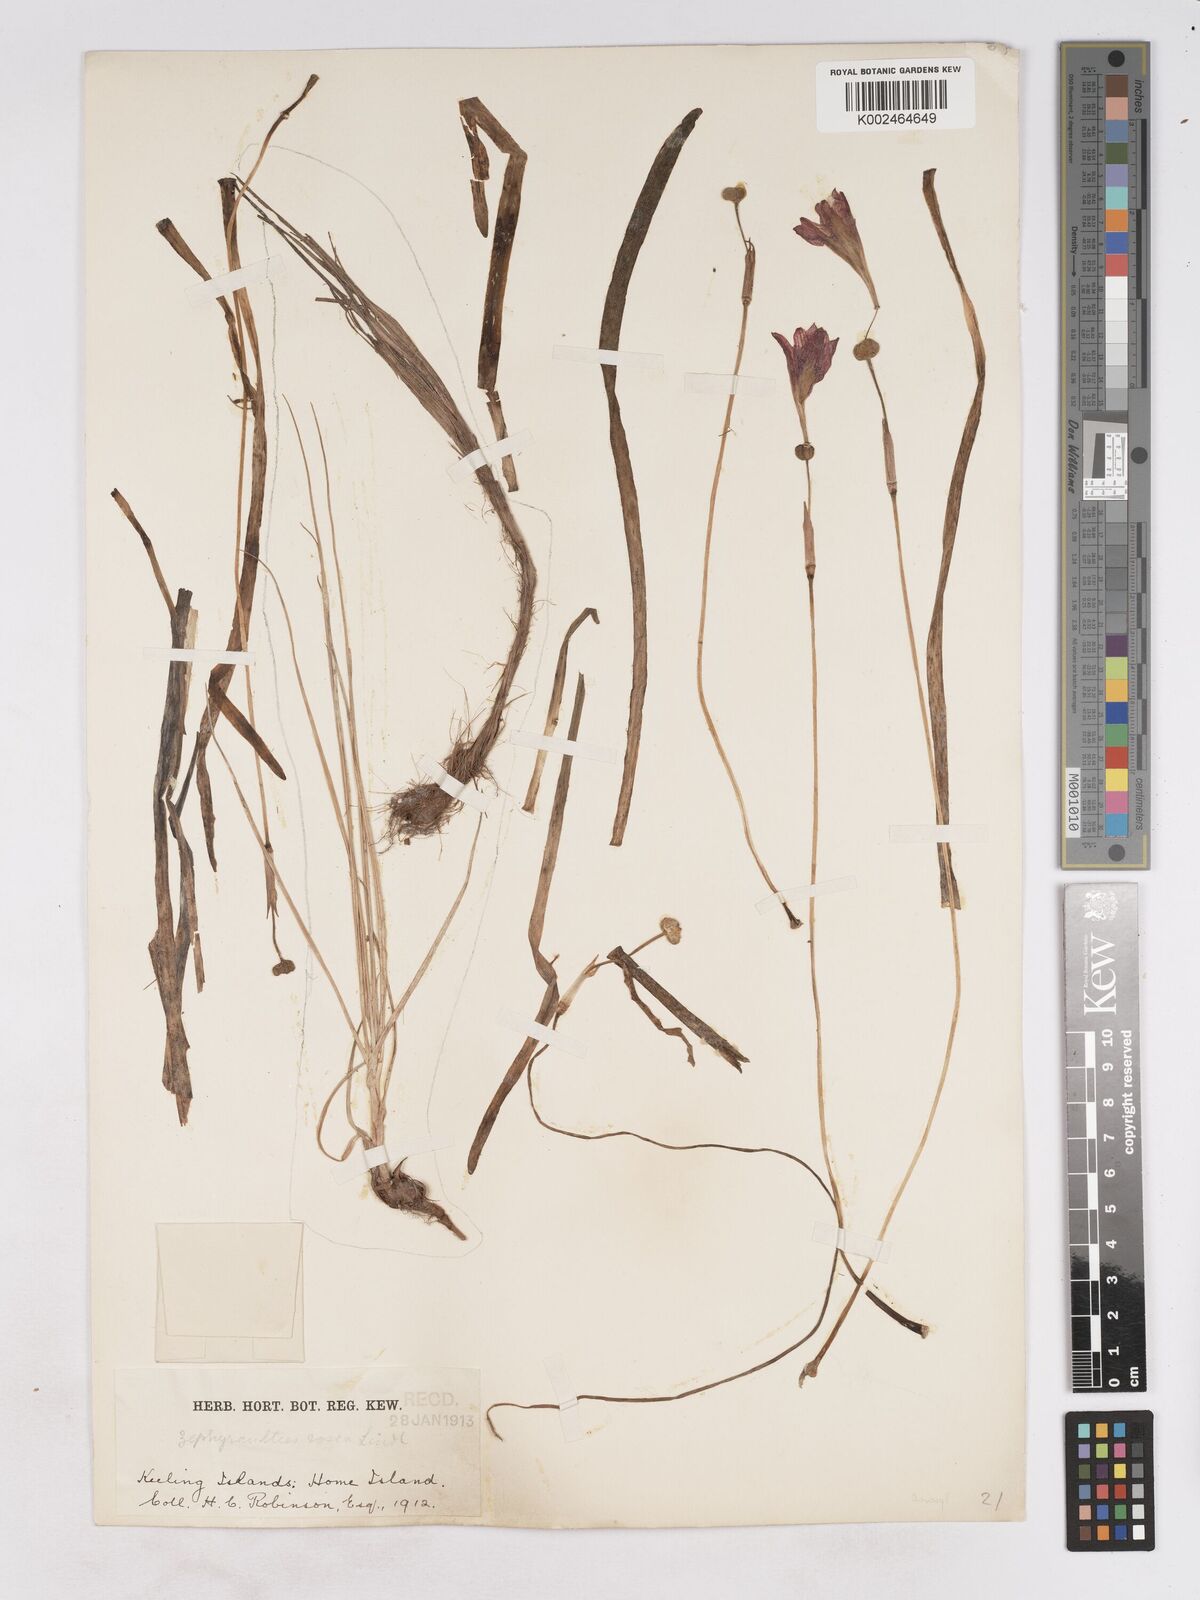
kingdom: Plantae
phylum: Tracheophyta
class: Liliopsida
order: Asparagales
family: Amaryllidaceae
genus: Zephyranthes
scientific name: Zephyranthes rosea
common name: Cuban zephyrlily
